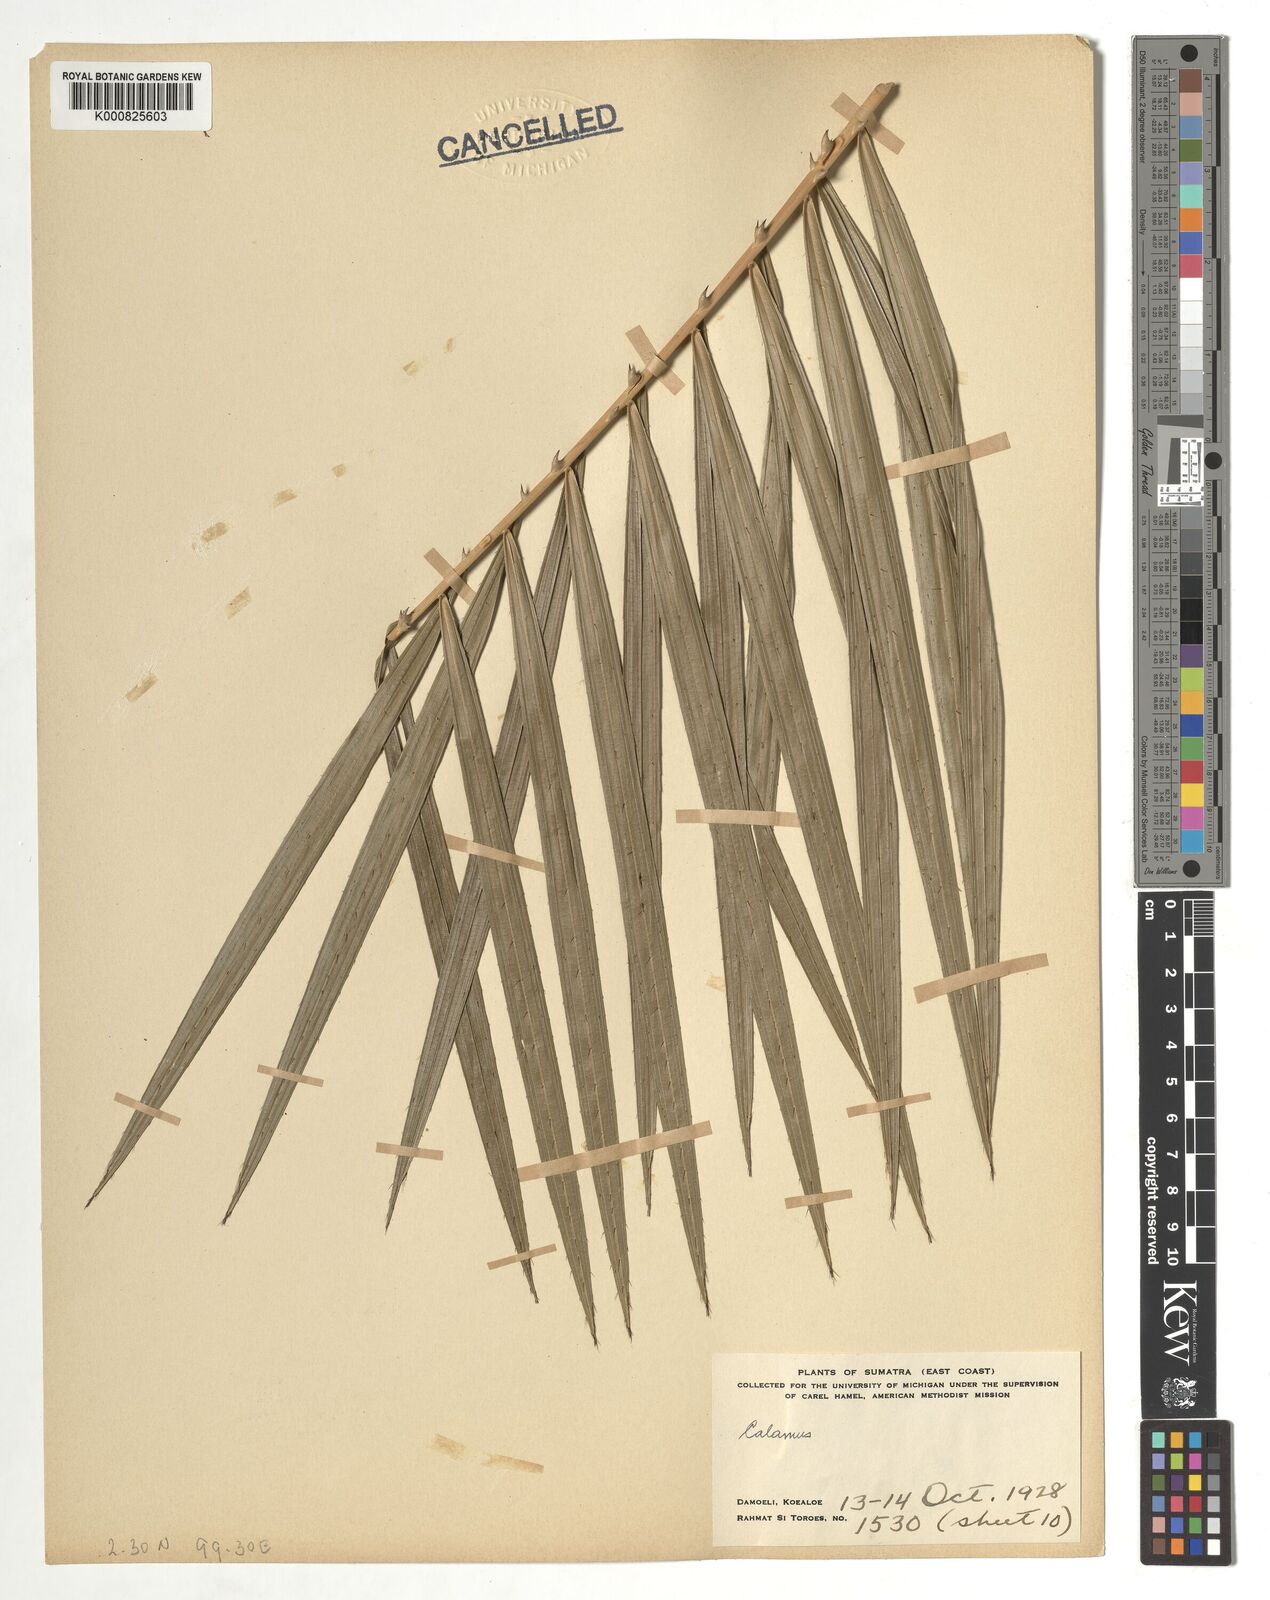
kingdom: Plantae
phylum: Tracheophyta
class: Liliopsida
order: Arecales
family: Arecaceae
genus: Calamus
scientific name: Calamus
